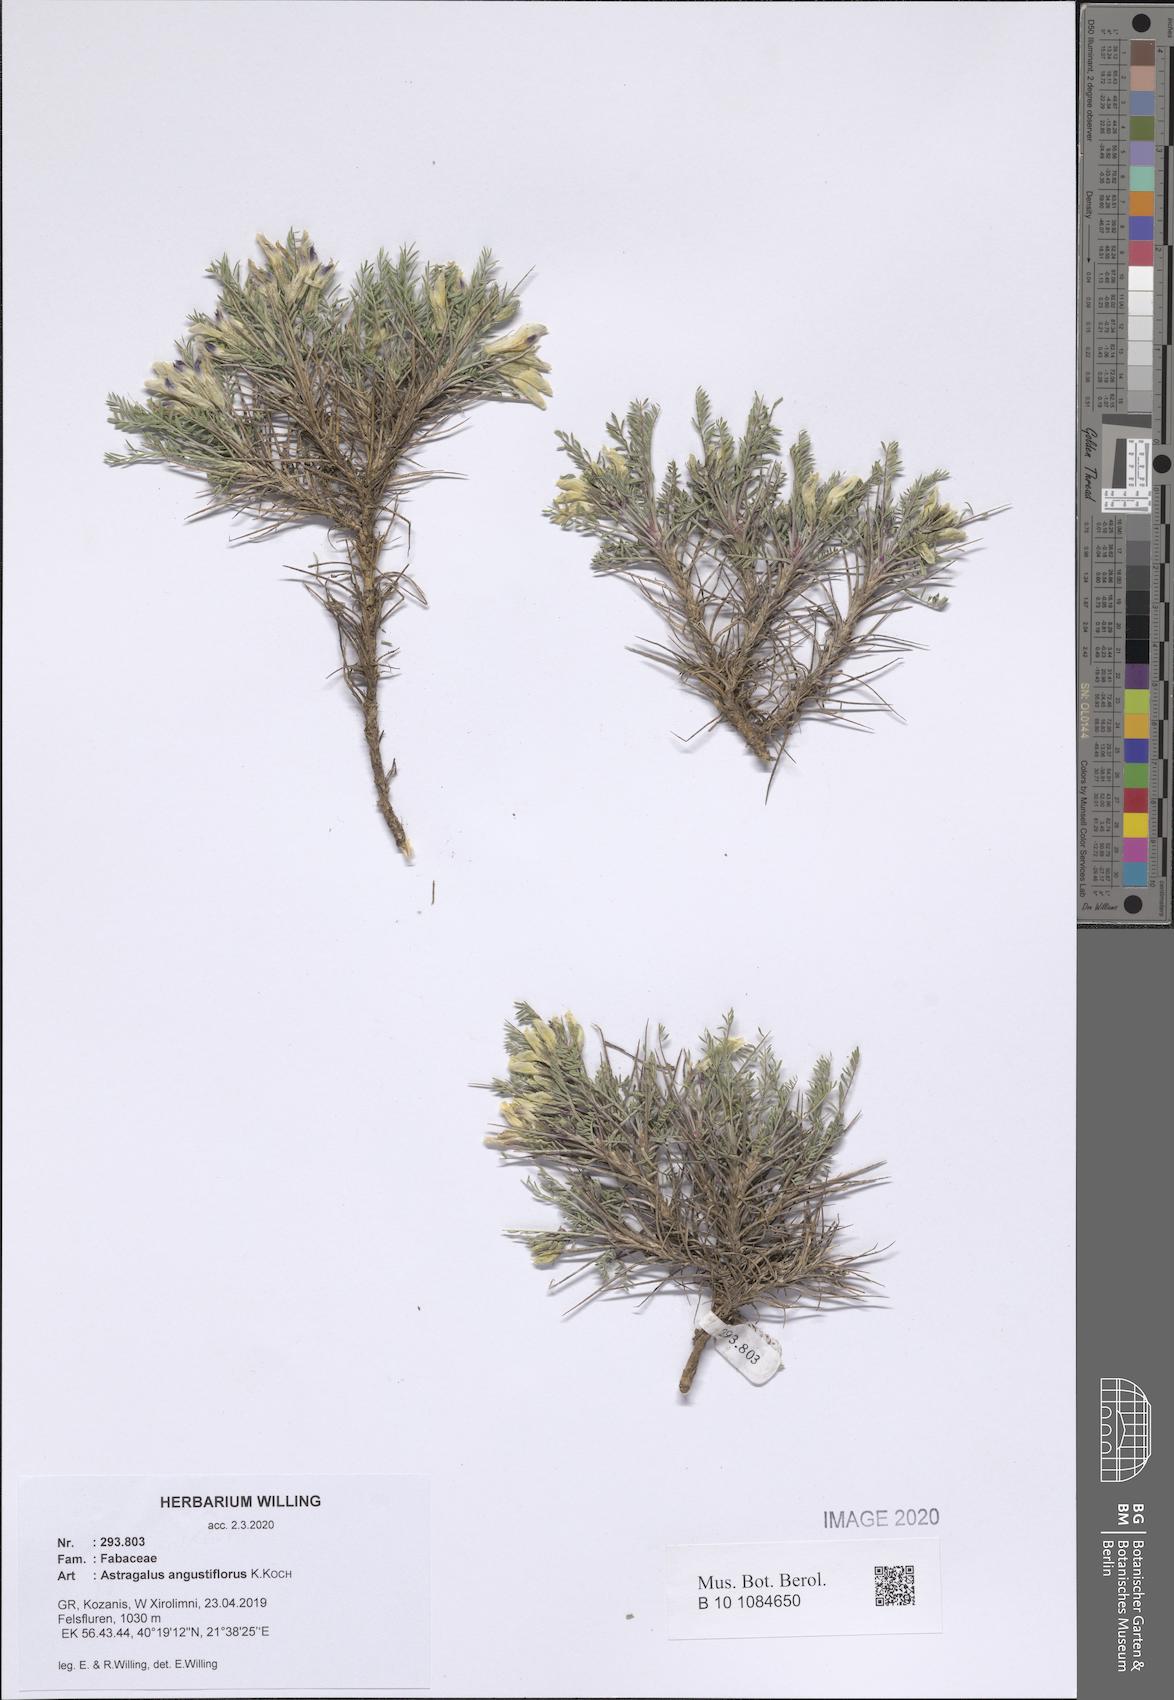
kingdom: Plantae
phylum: Tracheophyta
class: Magnoliopsida
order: Fabales
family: Fabaceae
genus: Astragalus
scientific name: Astragalus angustiflorus
